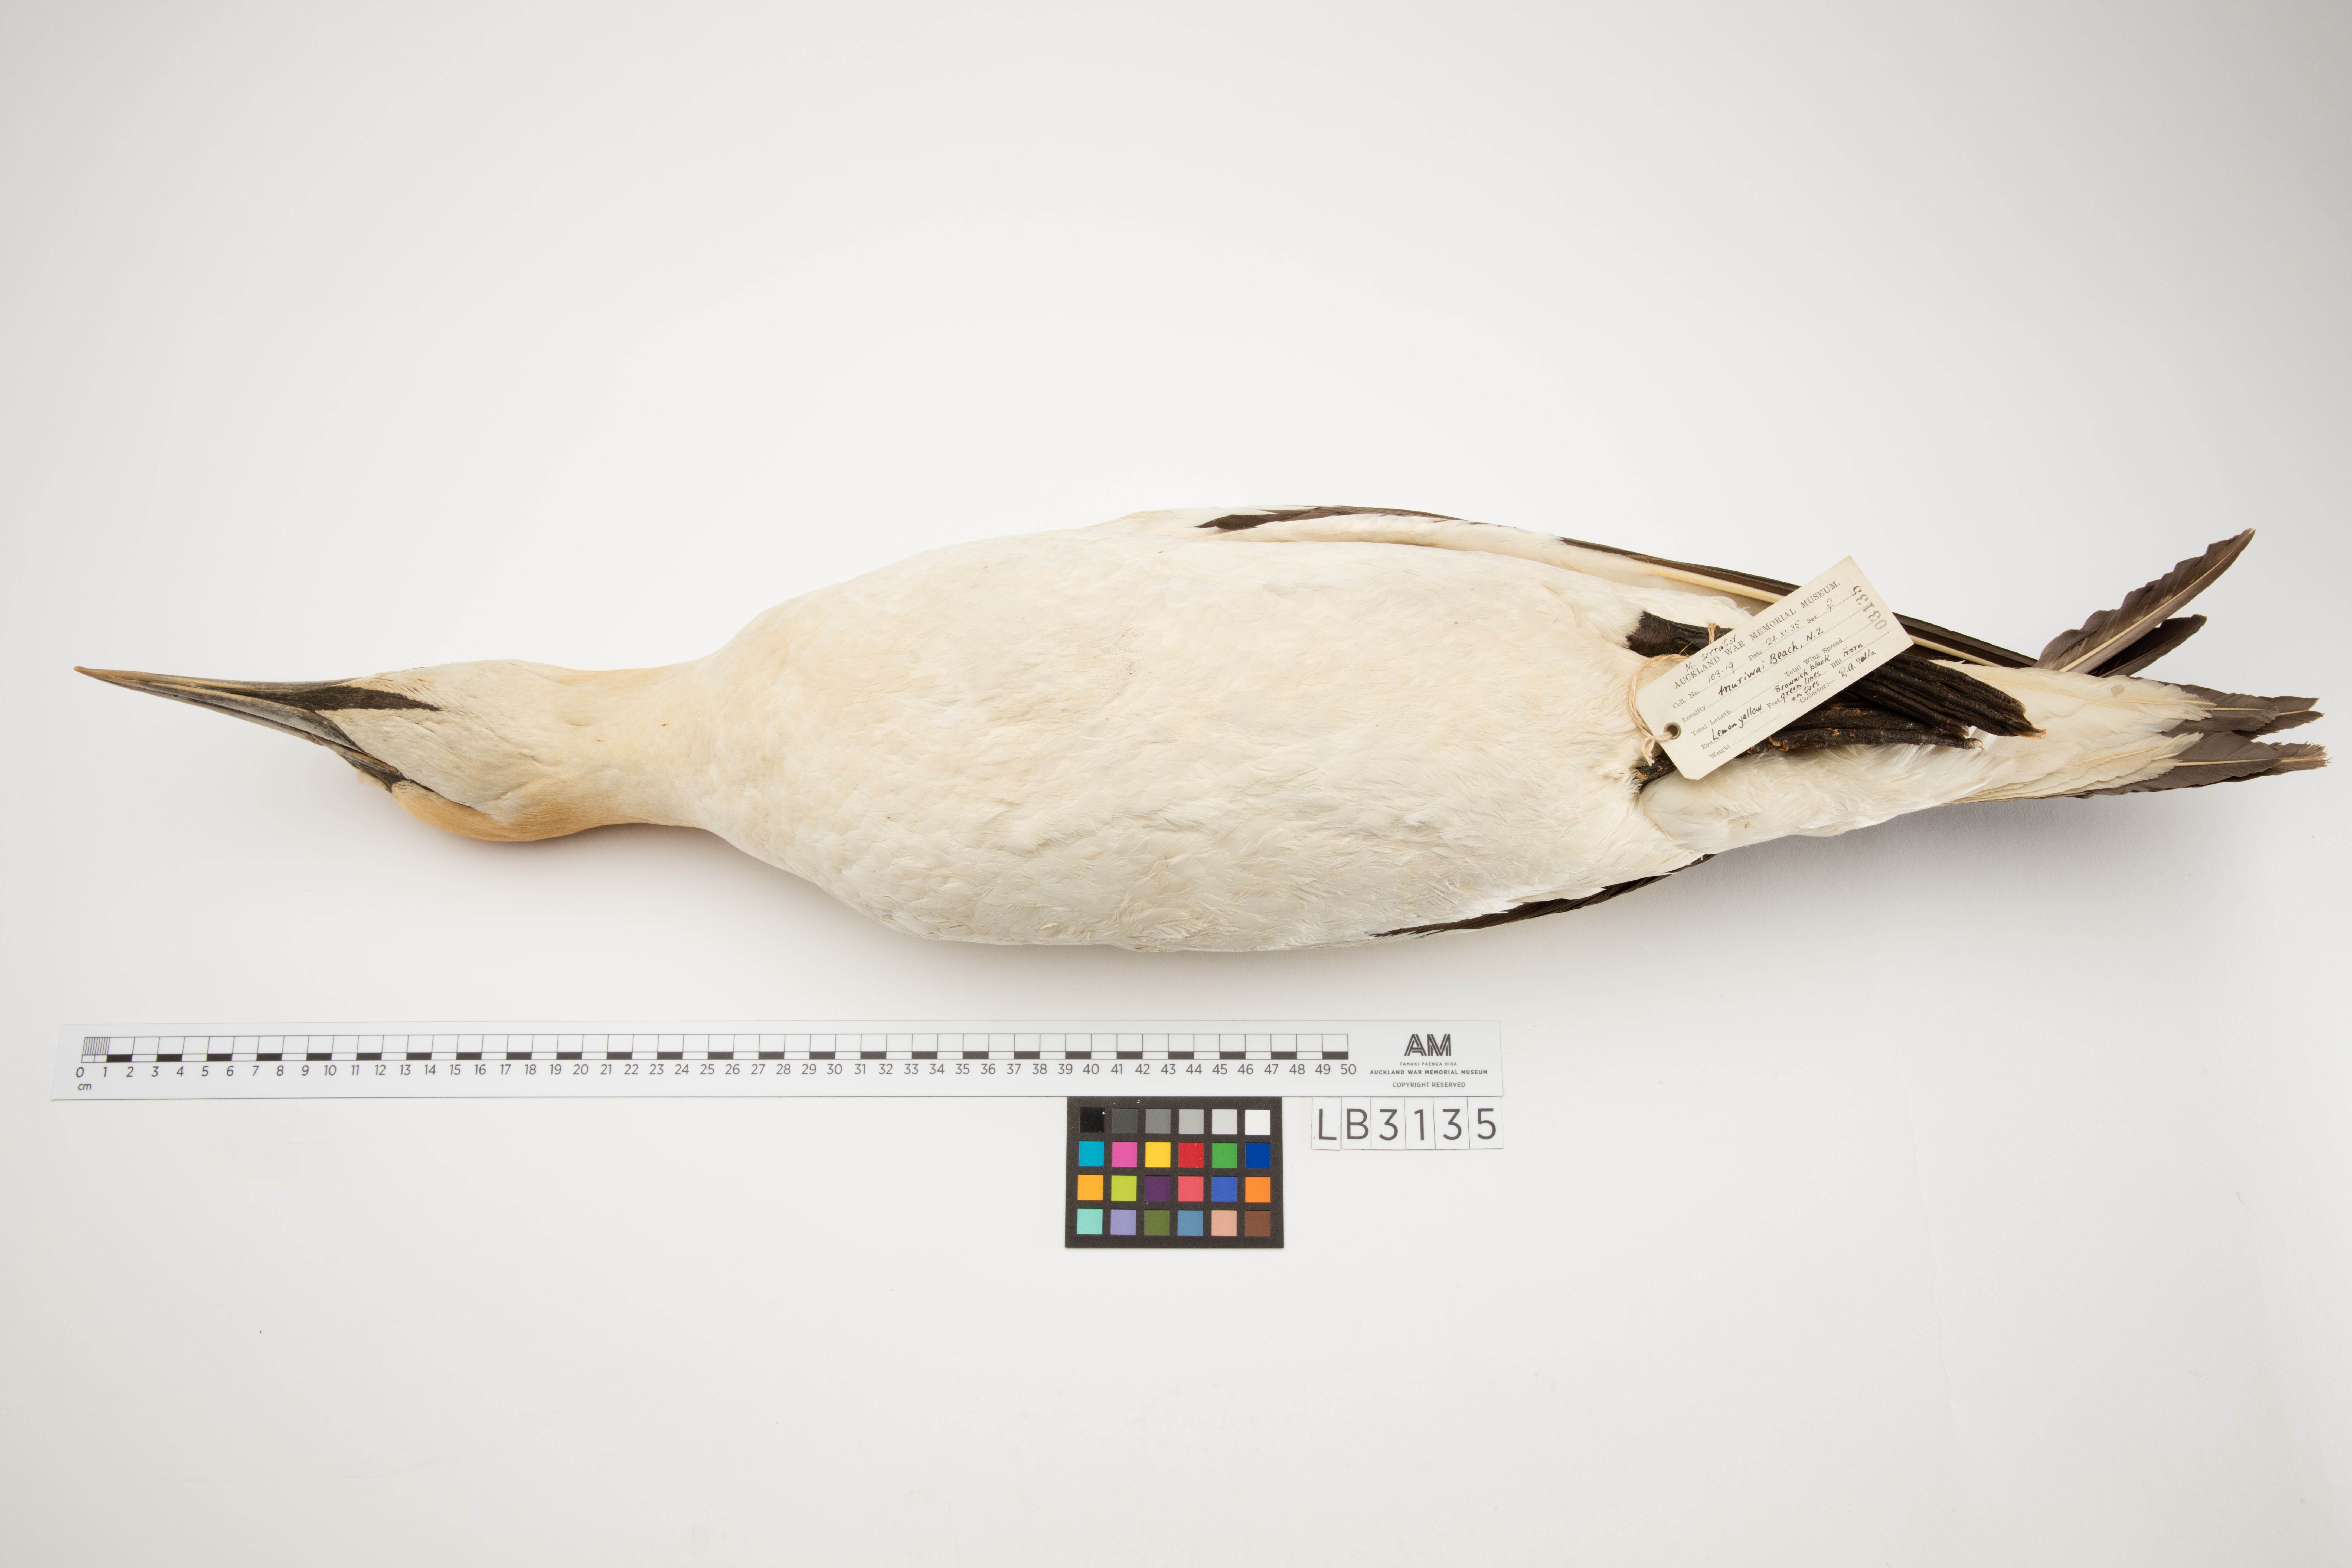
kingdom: Animalia
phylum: Chordata
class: Aves
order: Suliformes
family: Sulidae
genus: Morus
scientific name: Morus serrator
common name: Australasian gannet
